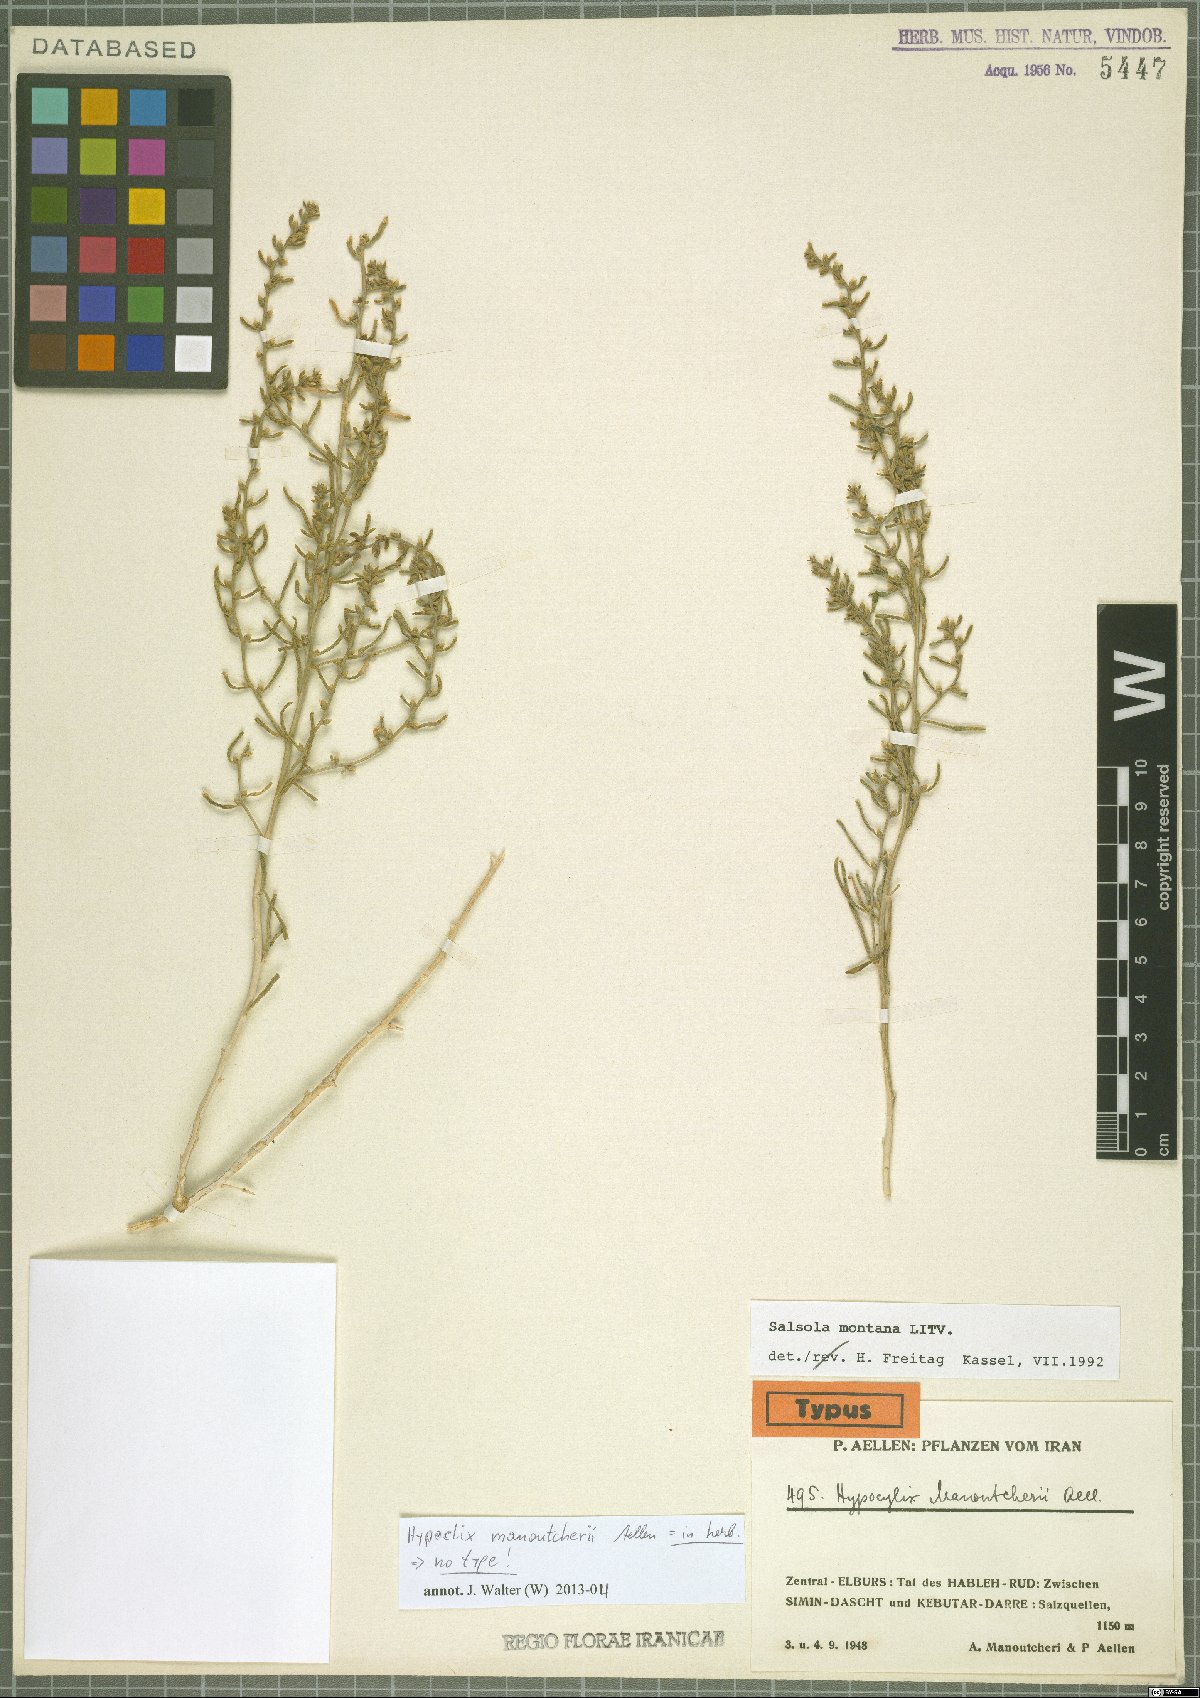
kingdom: Plantae
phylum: Tracheophyta
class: Magnoliopsida
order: Caryophyllales
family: Amaranthaceae
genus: Oreosalsola
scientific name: Oreosalsola montana
